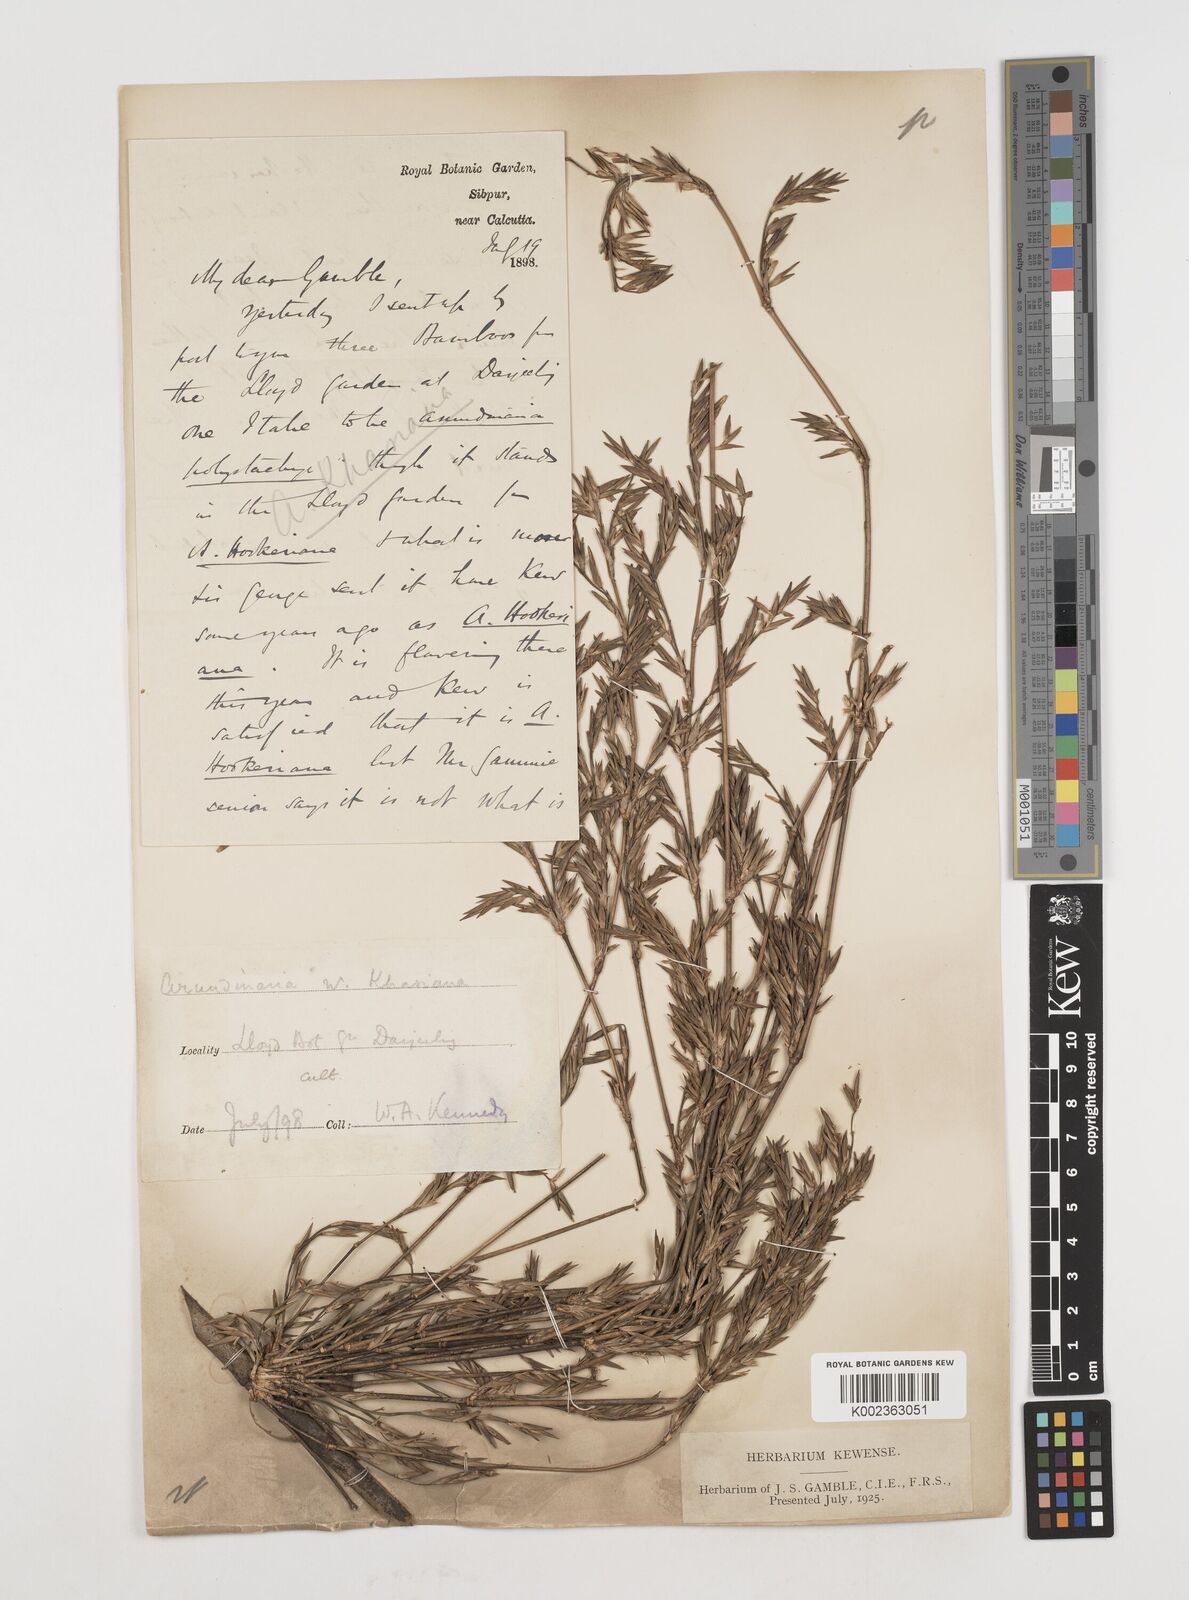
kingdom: Plantae
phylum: Tracheophyta
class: Liliopsida
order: Poales
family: Poaceae
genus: Drepanostachyum
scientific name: Drepanostachyum khasianum
